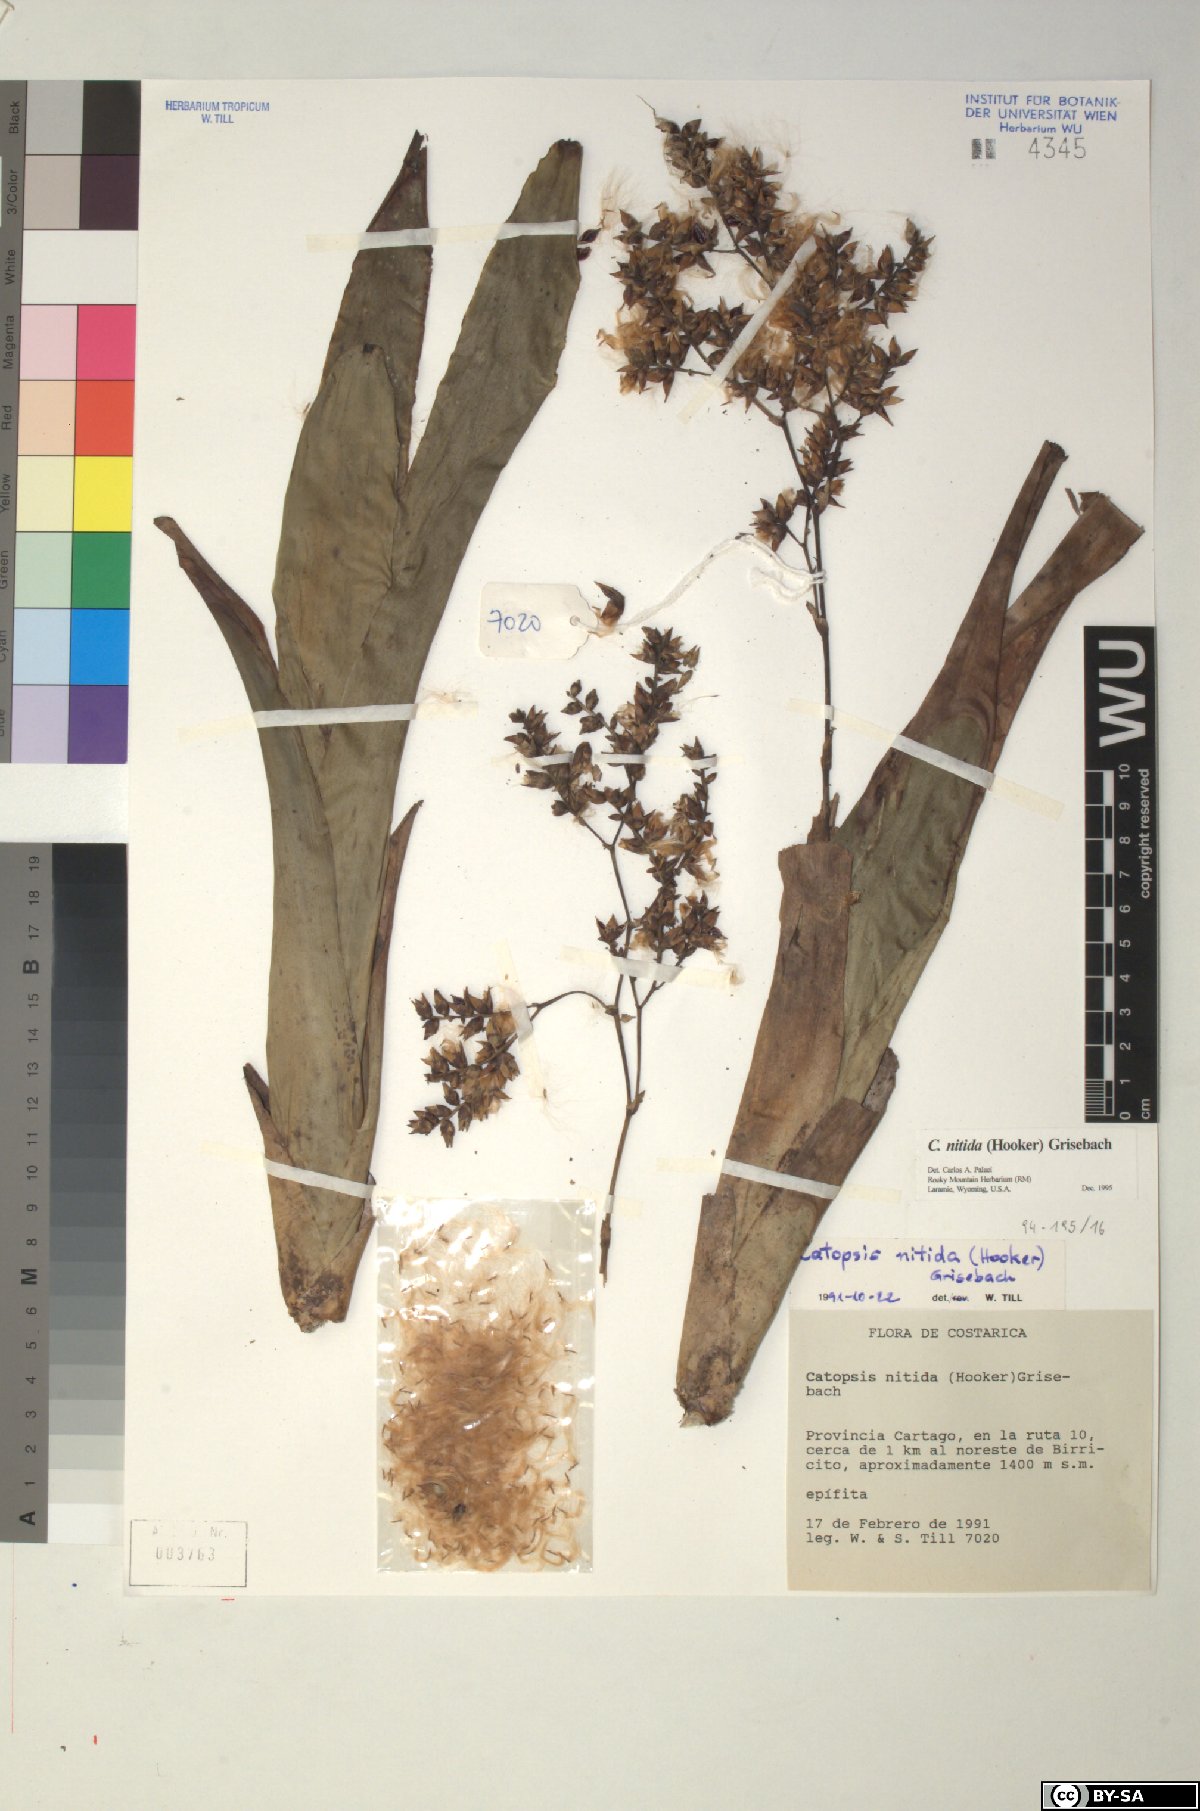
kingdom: Plantae
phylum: Tracheophyta
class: Liliopsida
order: Poales
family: Bromeliaceae
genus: Catopsis
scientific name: Catopsis nitida
